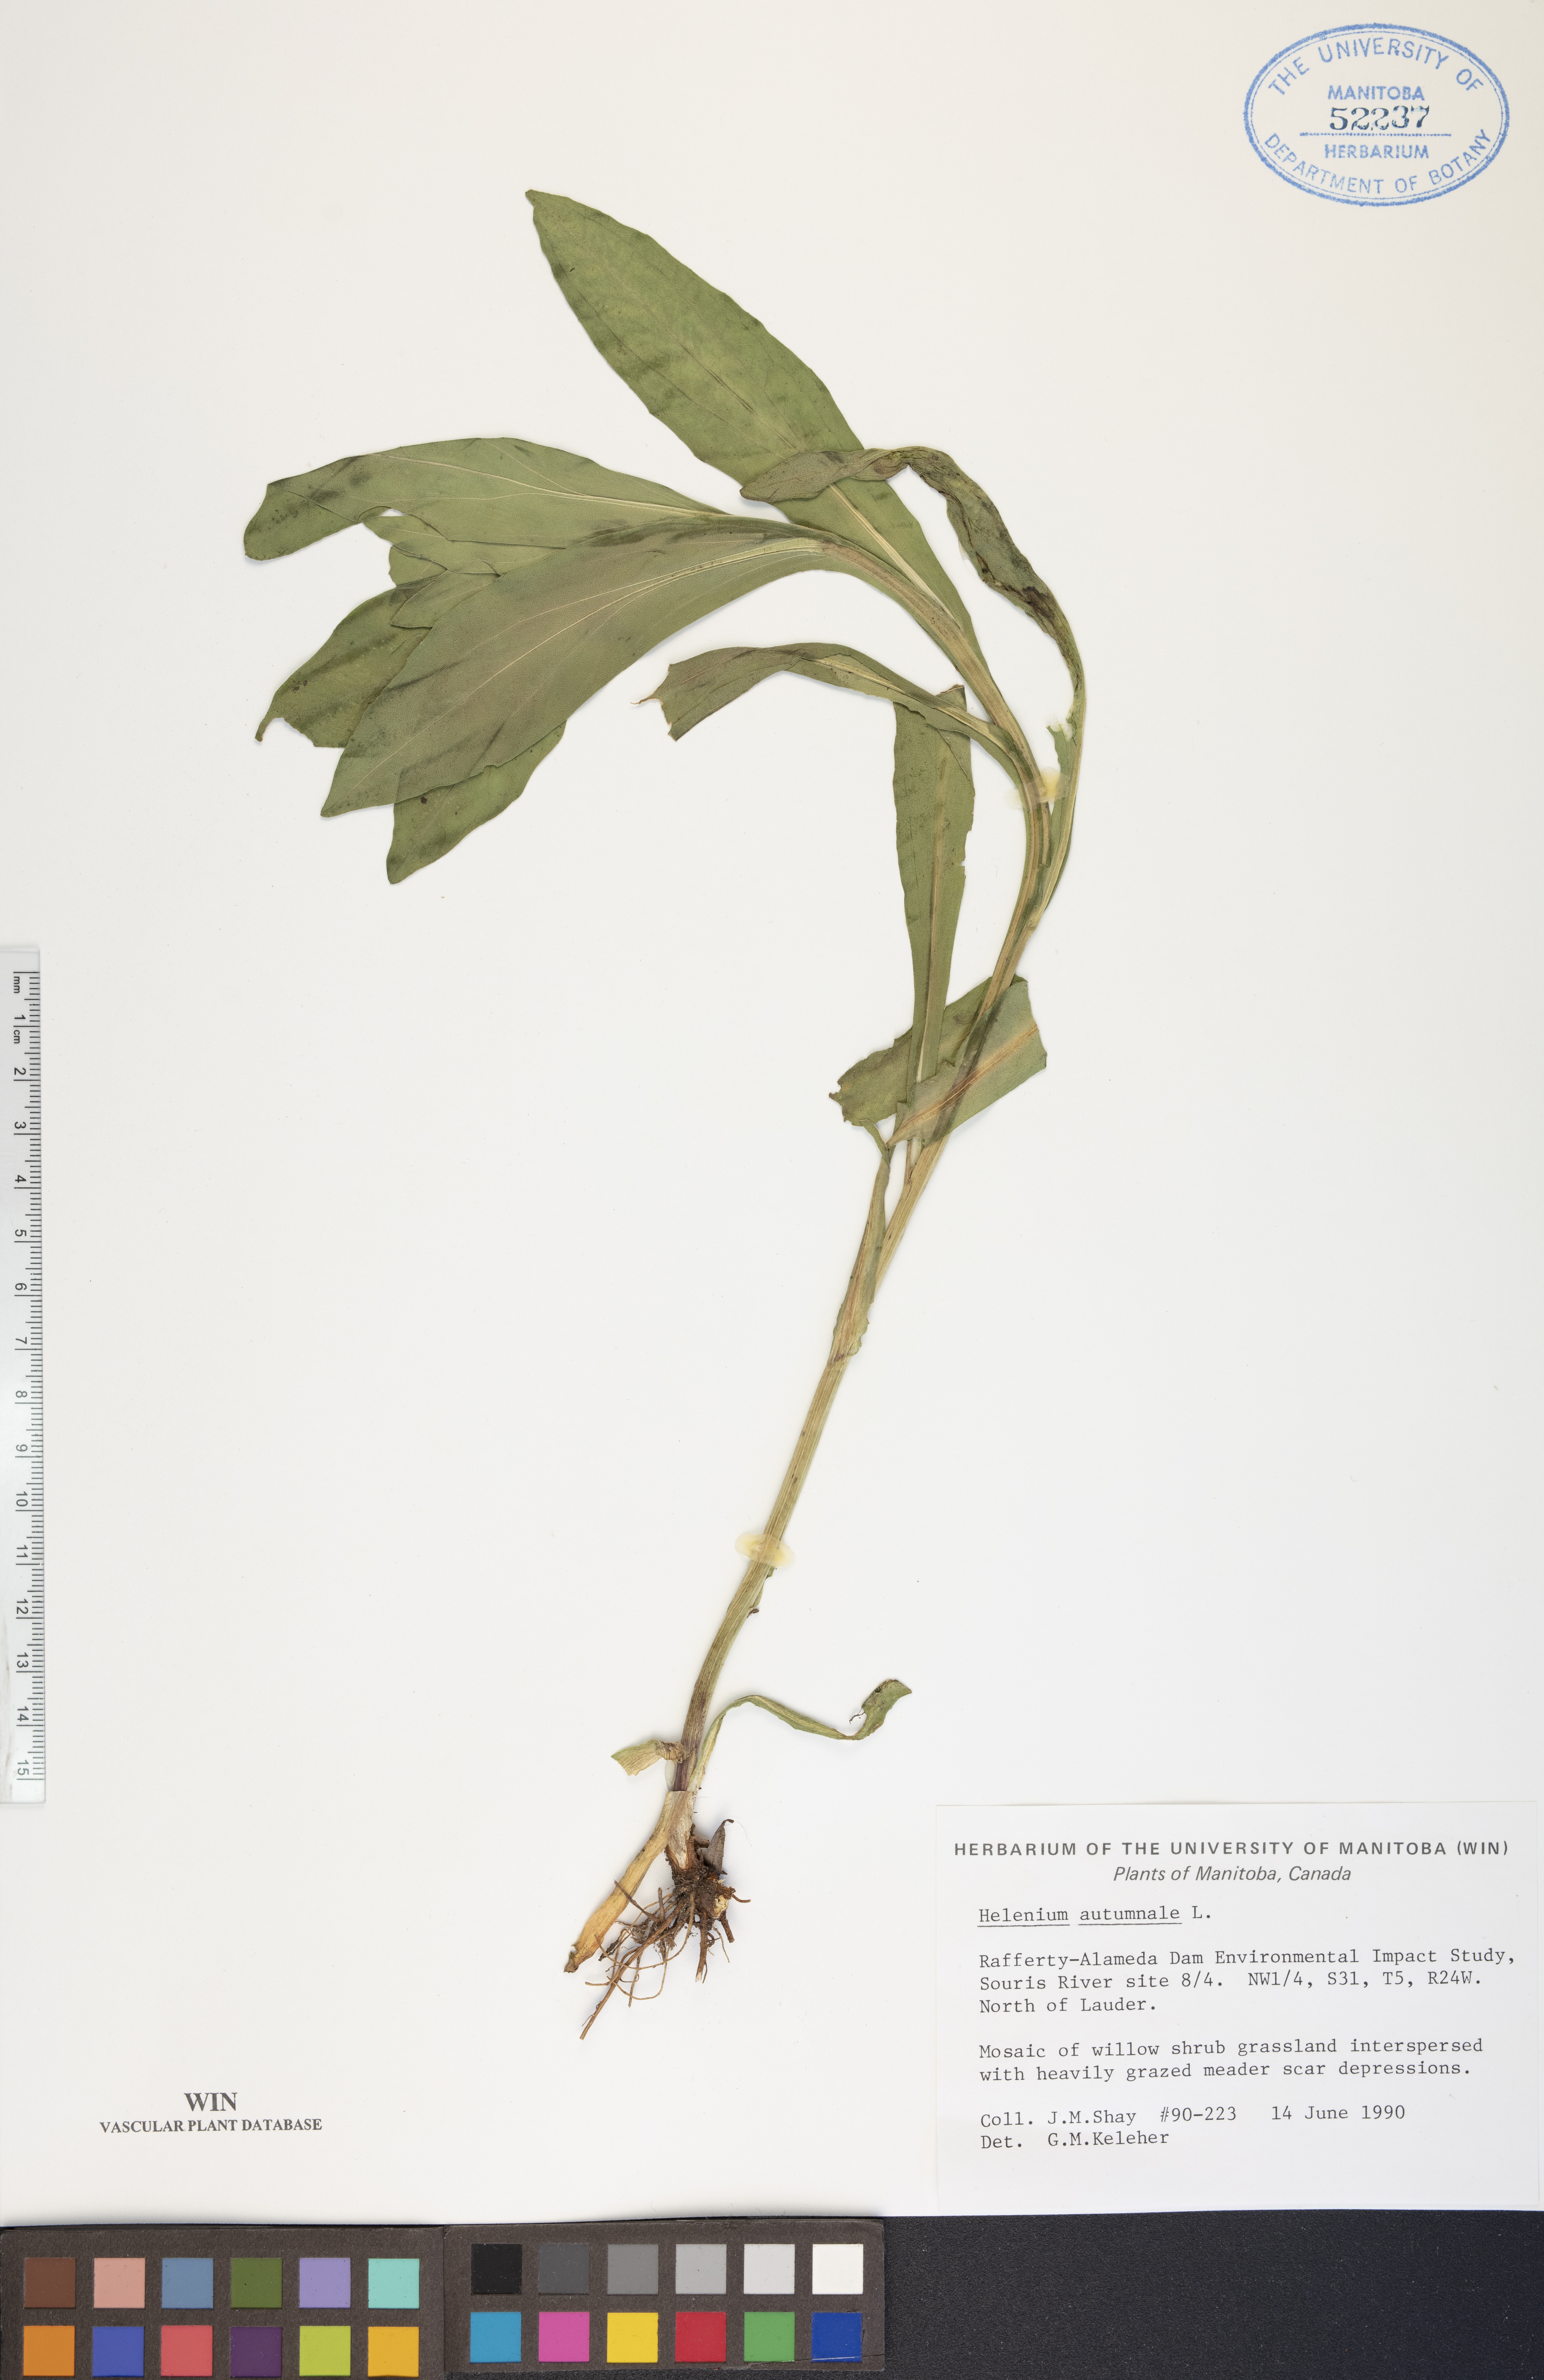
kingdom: Plantae
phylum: Tracheophyta
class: Magnoliopsida
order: Asterales
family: Asteraceae
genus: Helenium
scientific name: Helenium autumnale
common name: Sneezeweed
